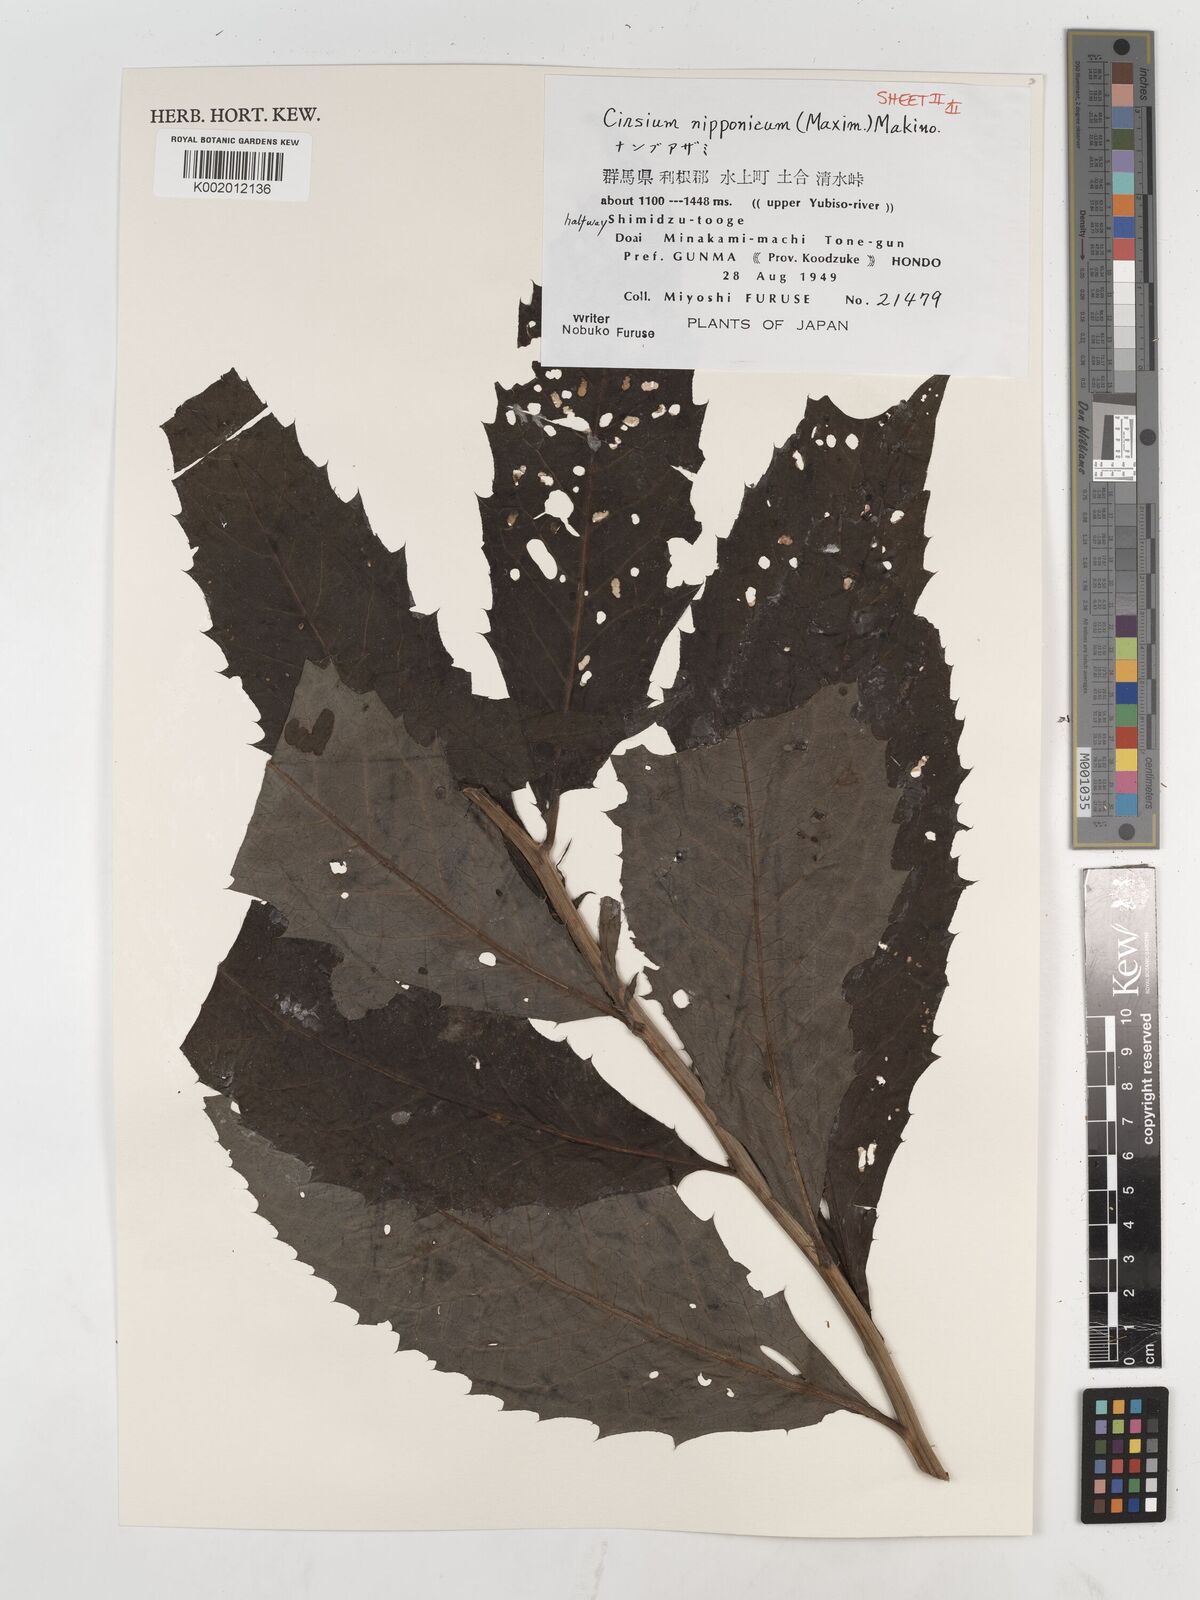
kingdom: Plantae
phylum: Tracheophyta
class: Magnoliopsida
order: Asterales
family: Asteraceae
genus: Cirsium
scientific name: Cirsium nipponicum
